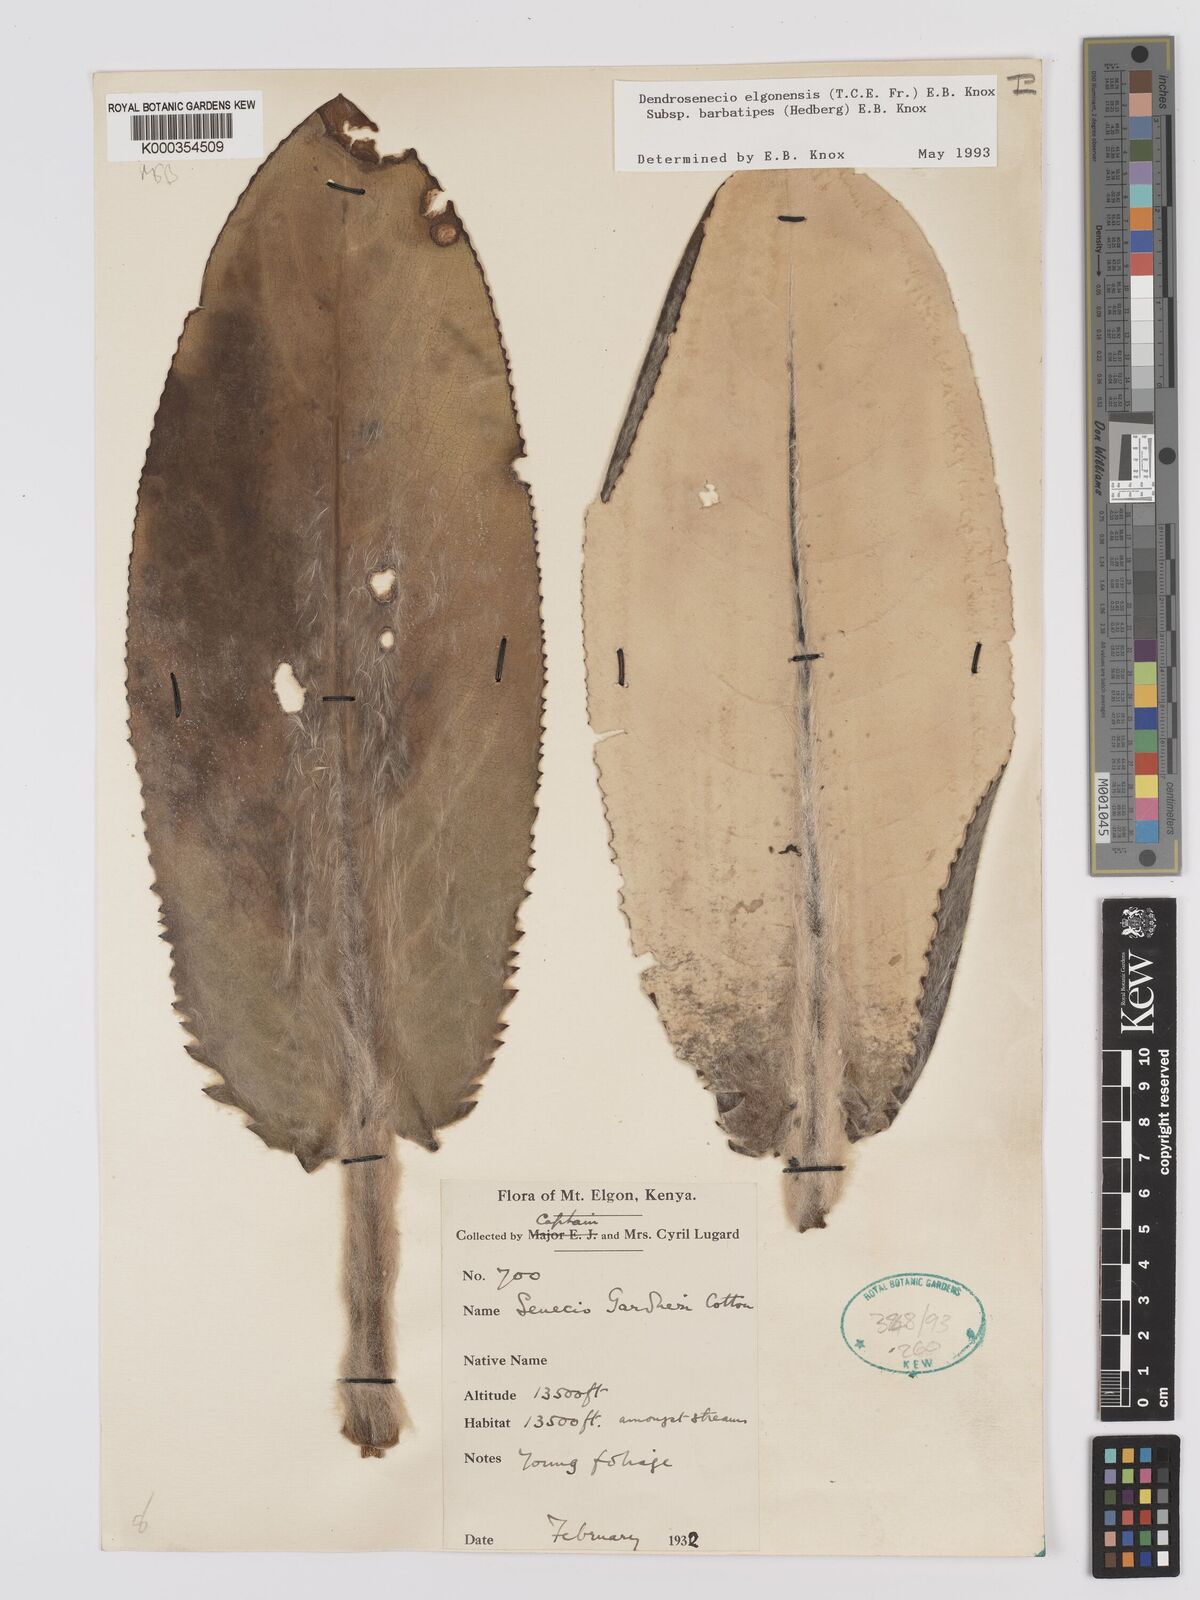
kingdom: Plantae
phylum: Tracheophyta
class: Magnoliopsida
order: Asterales
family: Asteraceae
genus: Dendrosenecio
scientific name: Dendrosenecio elgonensis
